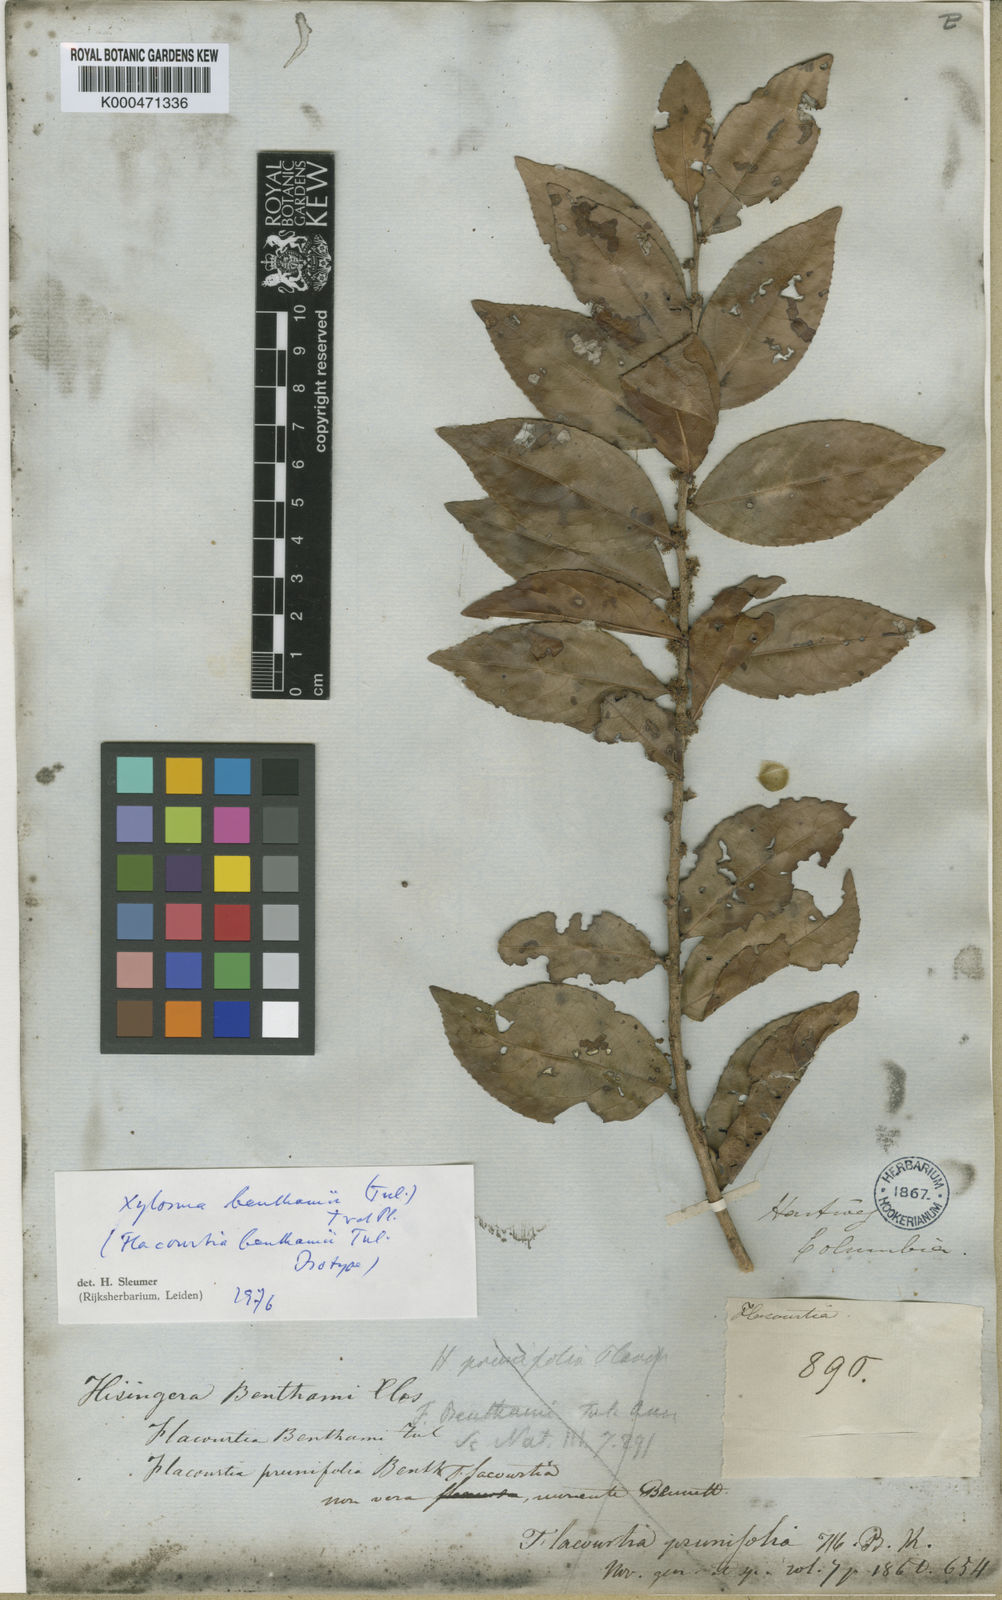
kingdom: Plantae
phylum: Tracheophyta
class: Magnoliopsida
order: Malpighiales
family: Salicaceae
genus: Xylosma
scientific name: Xylosma benthamii
